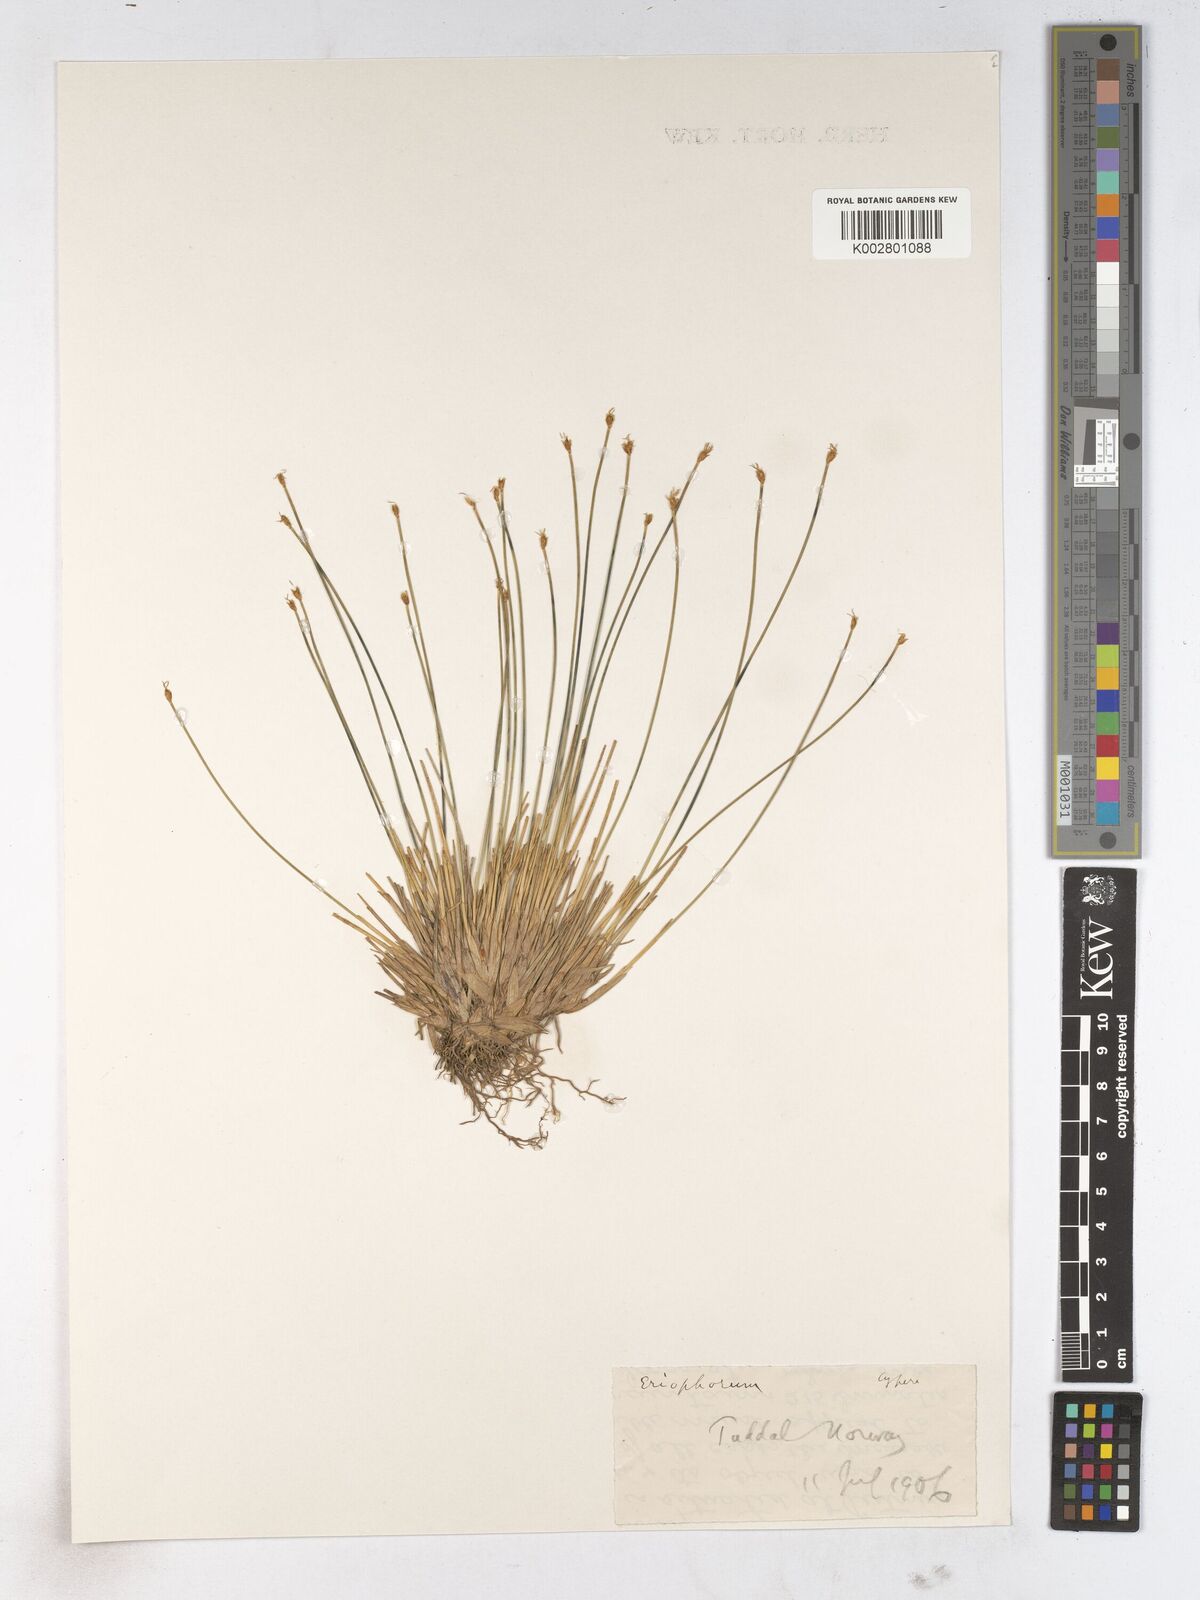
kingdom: Plantae
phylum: Tracheophyta
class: Liliopsida
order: Poales
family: Cyperaceae
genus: Trichophorum
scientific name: Trichophorum cespitosum
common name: Cespitose bulrush
